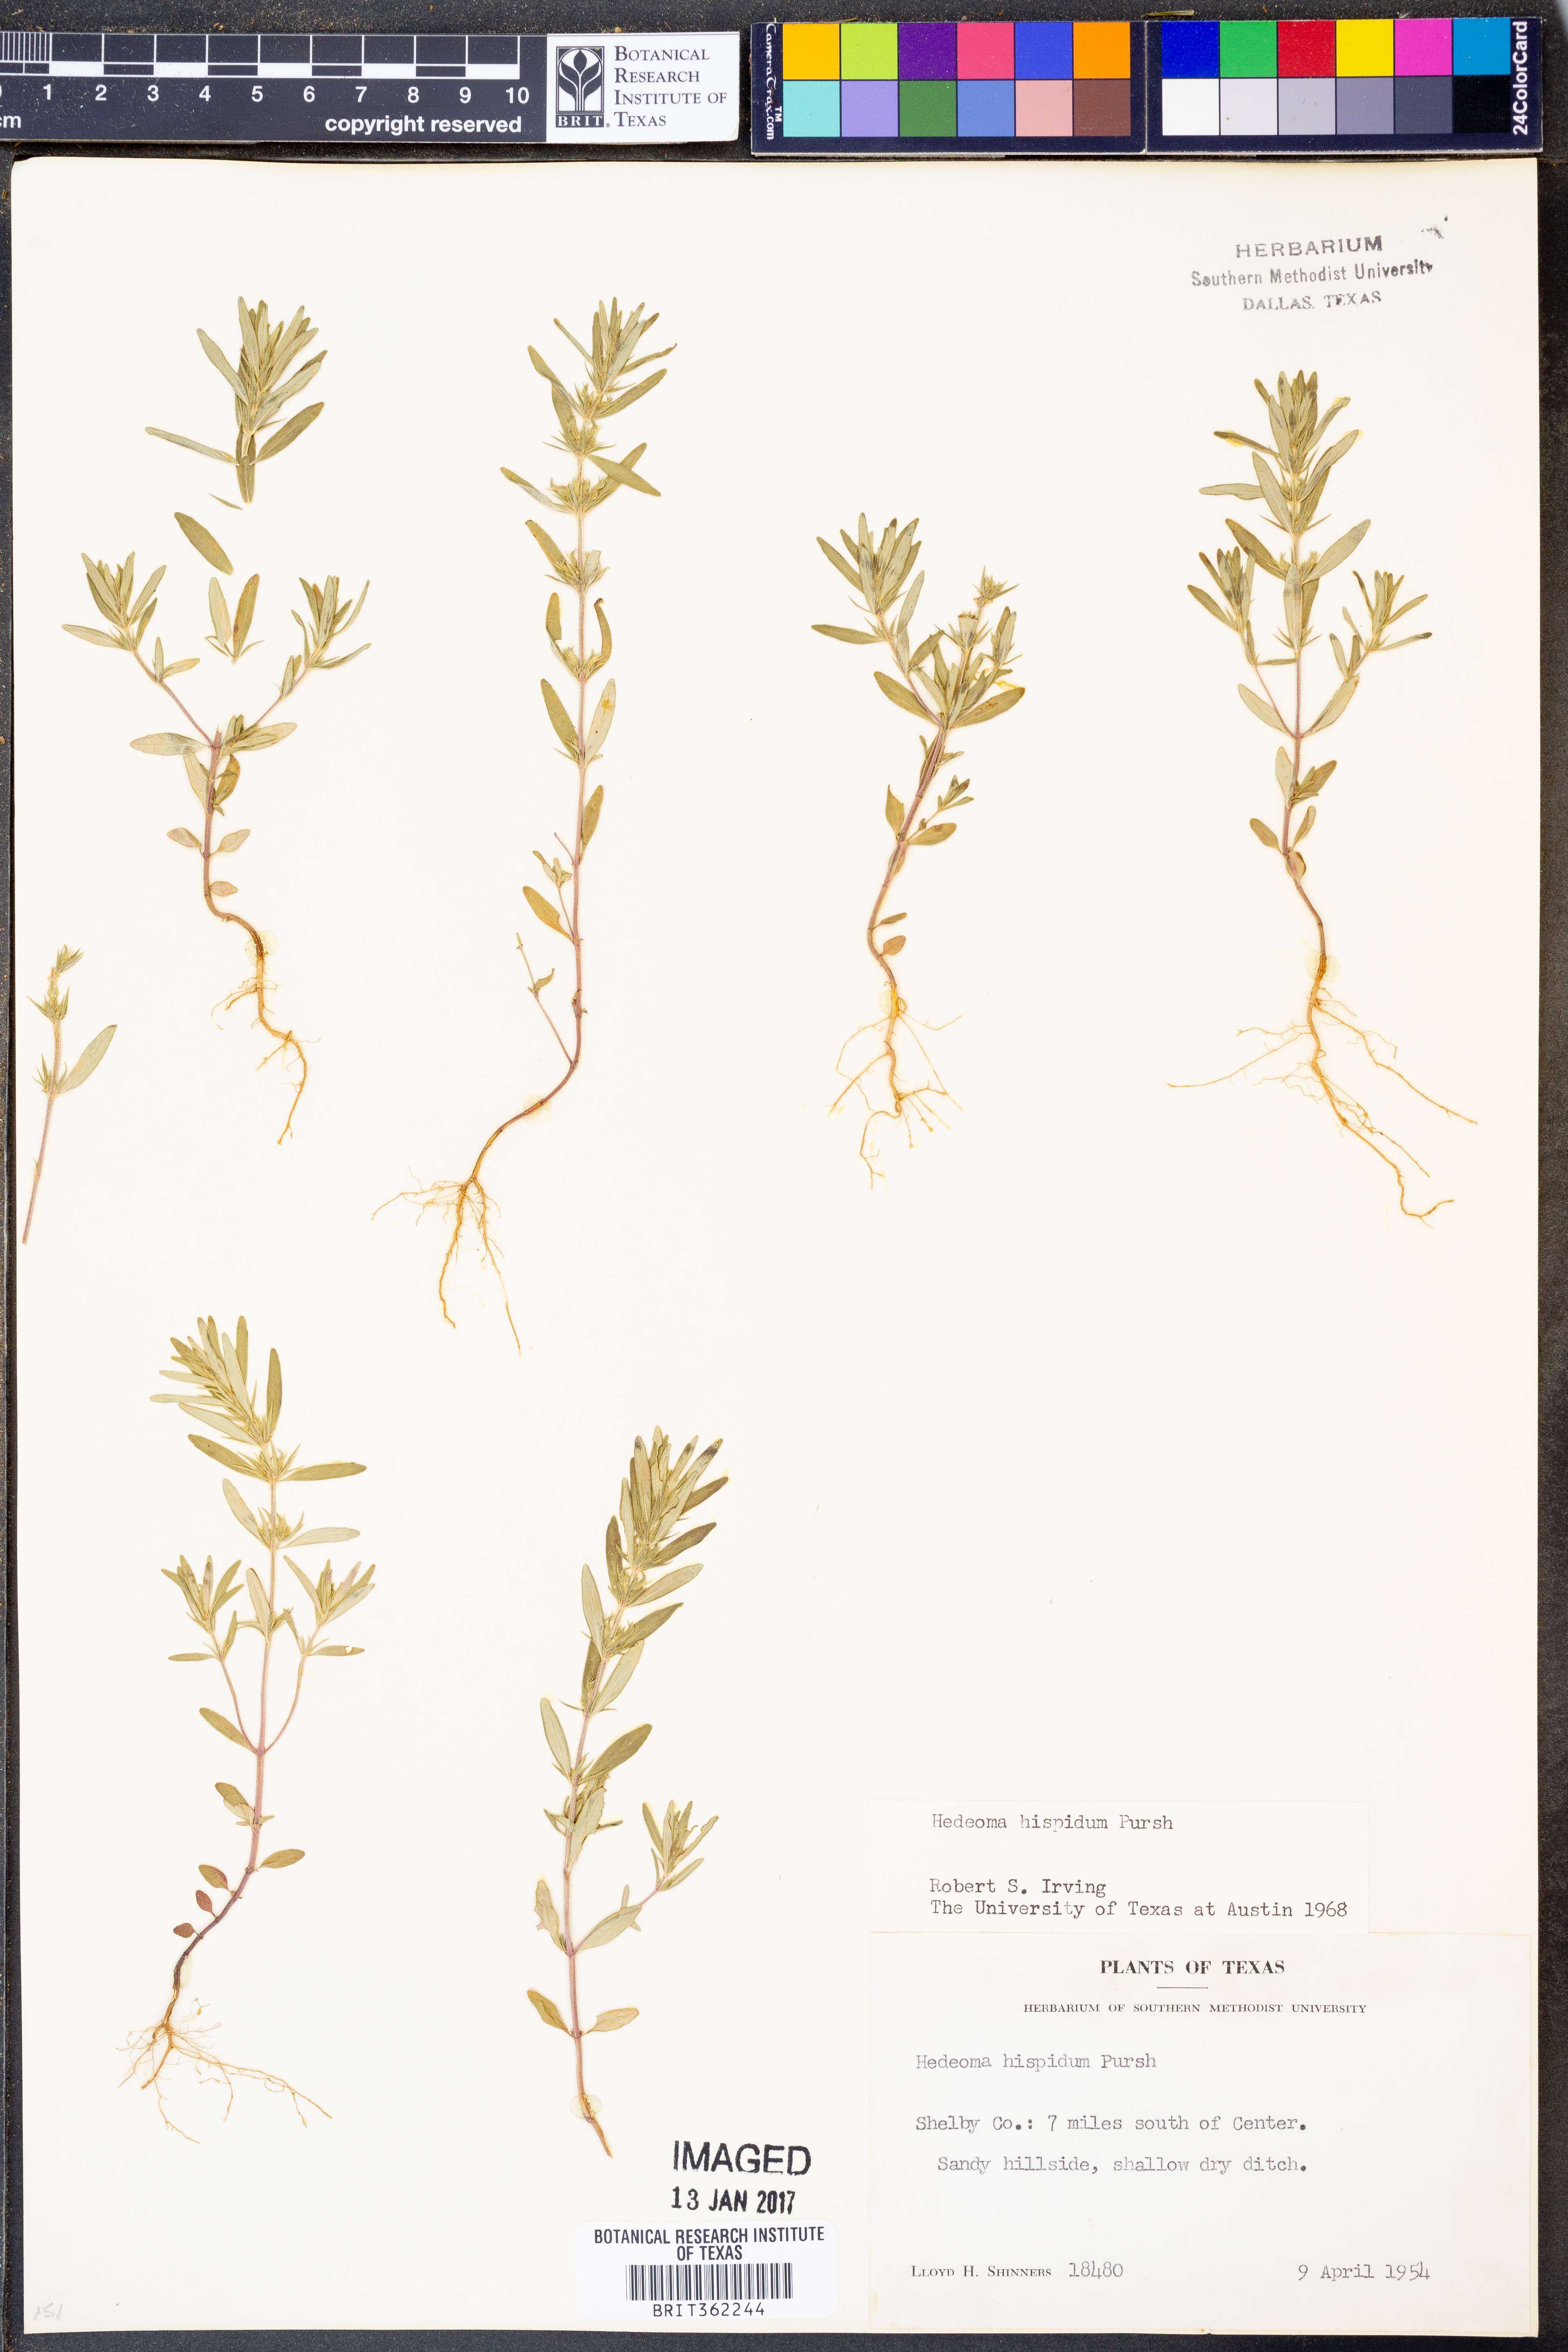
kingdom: Plantae
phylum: Tracheophyta
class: Magnoliopsida
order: Lamiales
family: Lamiaceae
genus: Hedeoma
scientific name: Hedeoma hispida
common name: Mock pennyroyal
